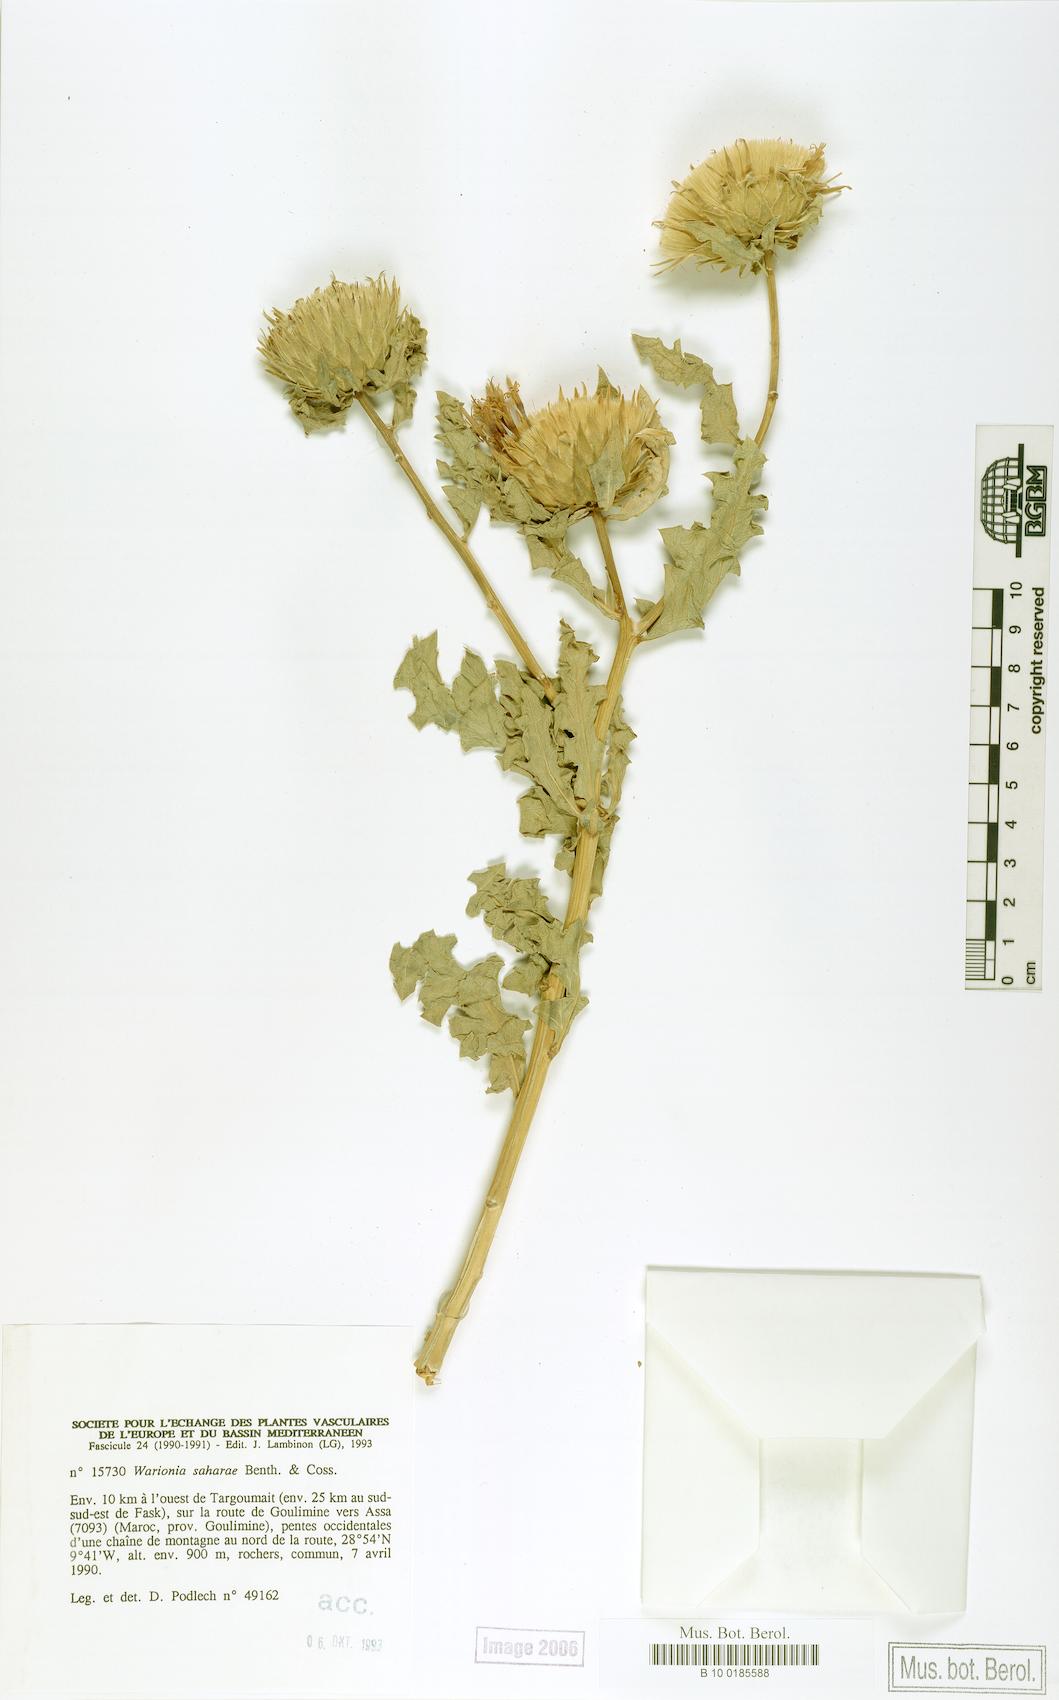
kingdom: Plantae
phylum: Tracheophyta
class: Magnoliopsida
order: Asterales
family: Asteraceae
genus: Warionia
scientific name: Warionia saharae
